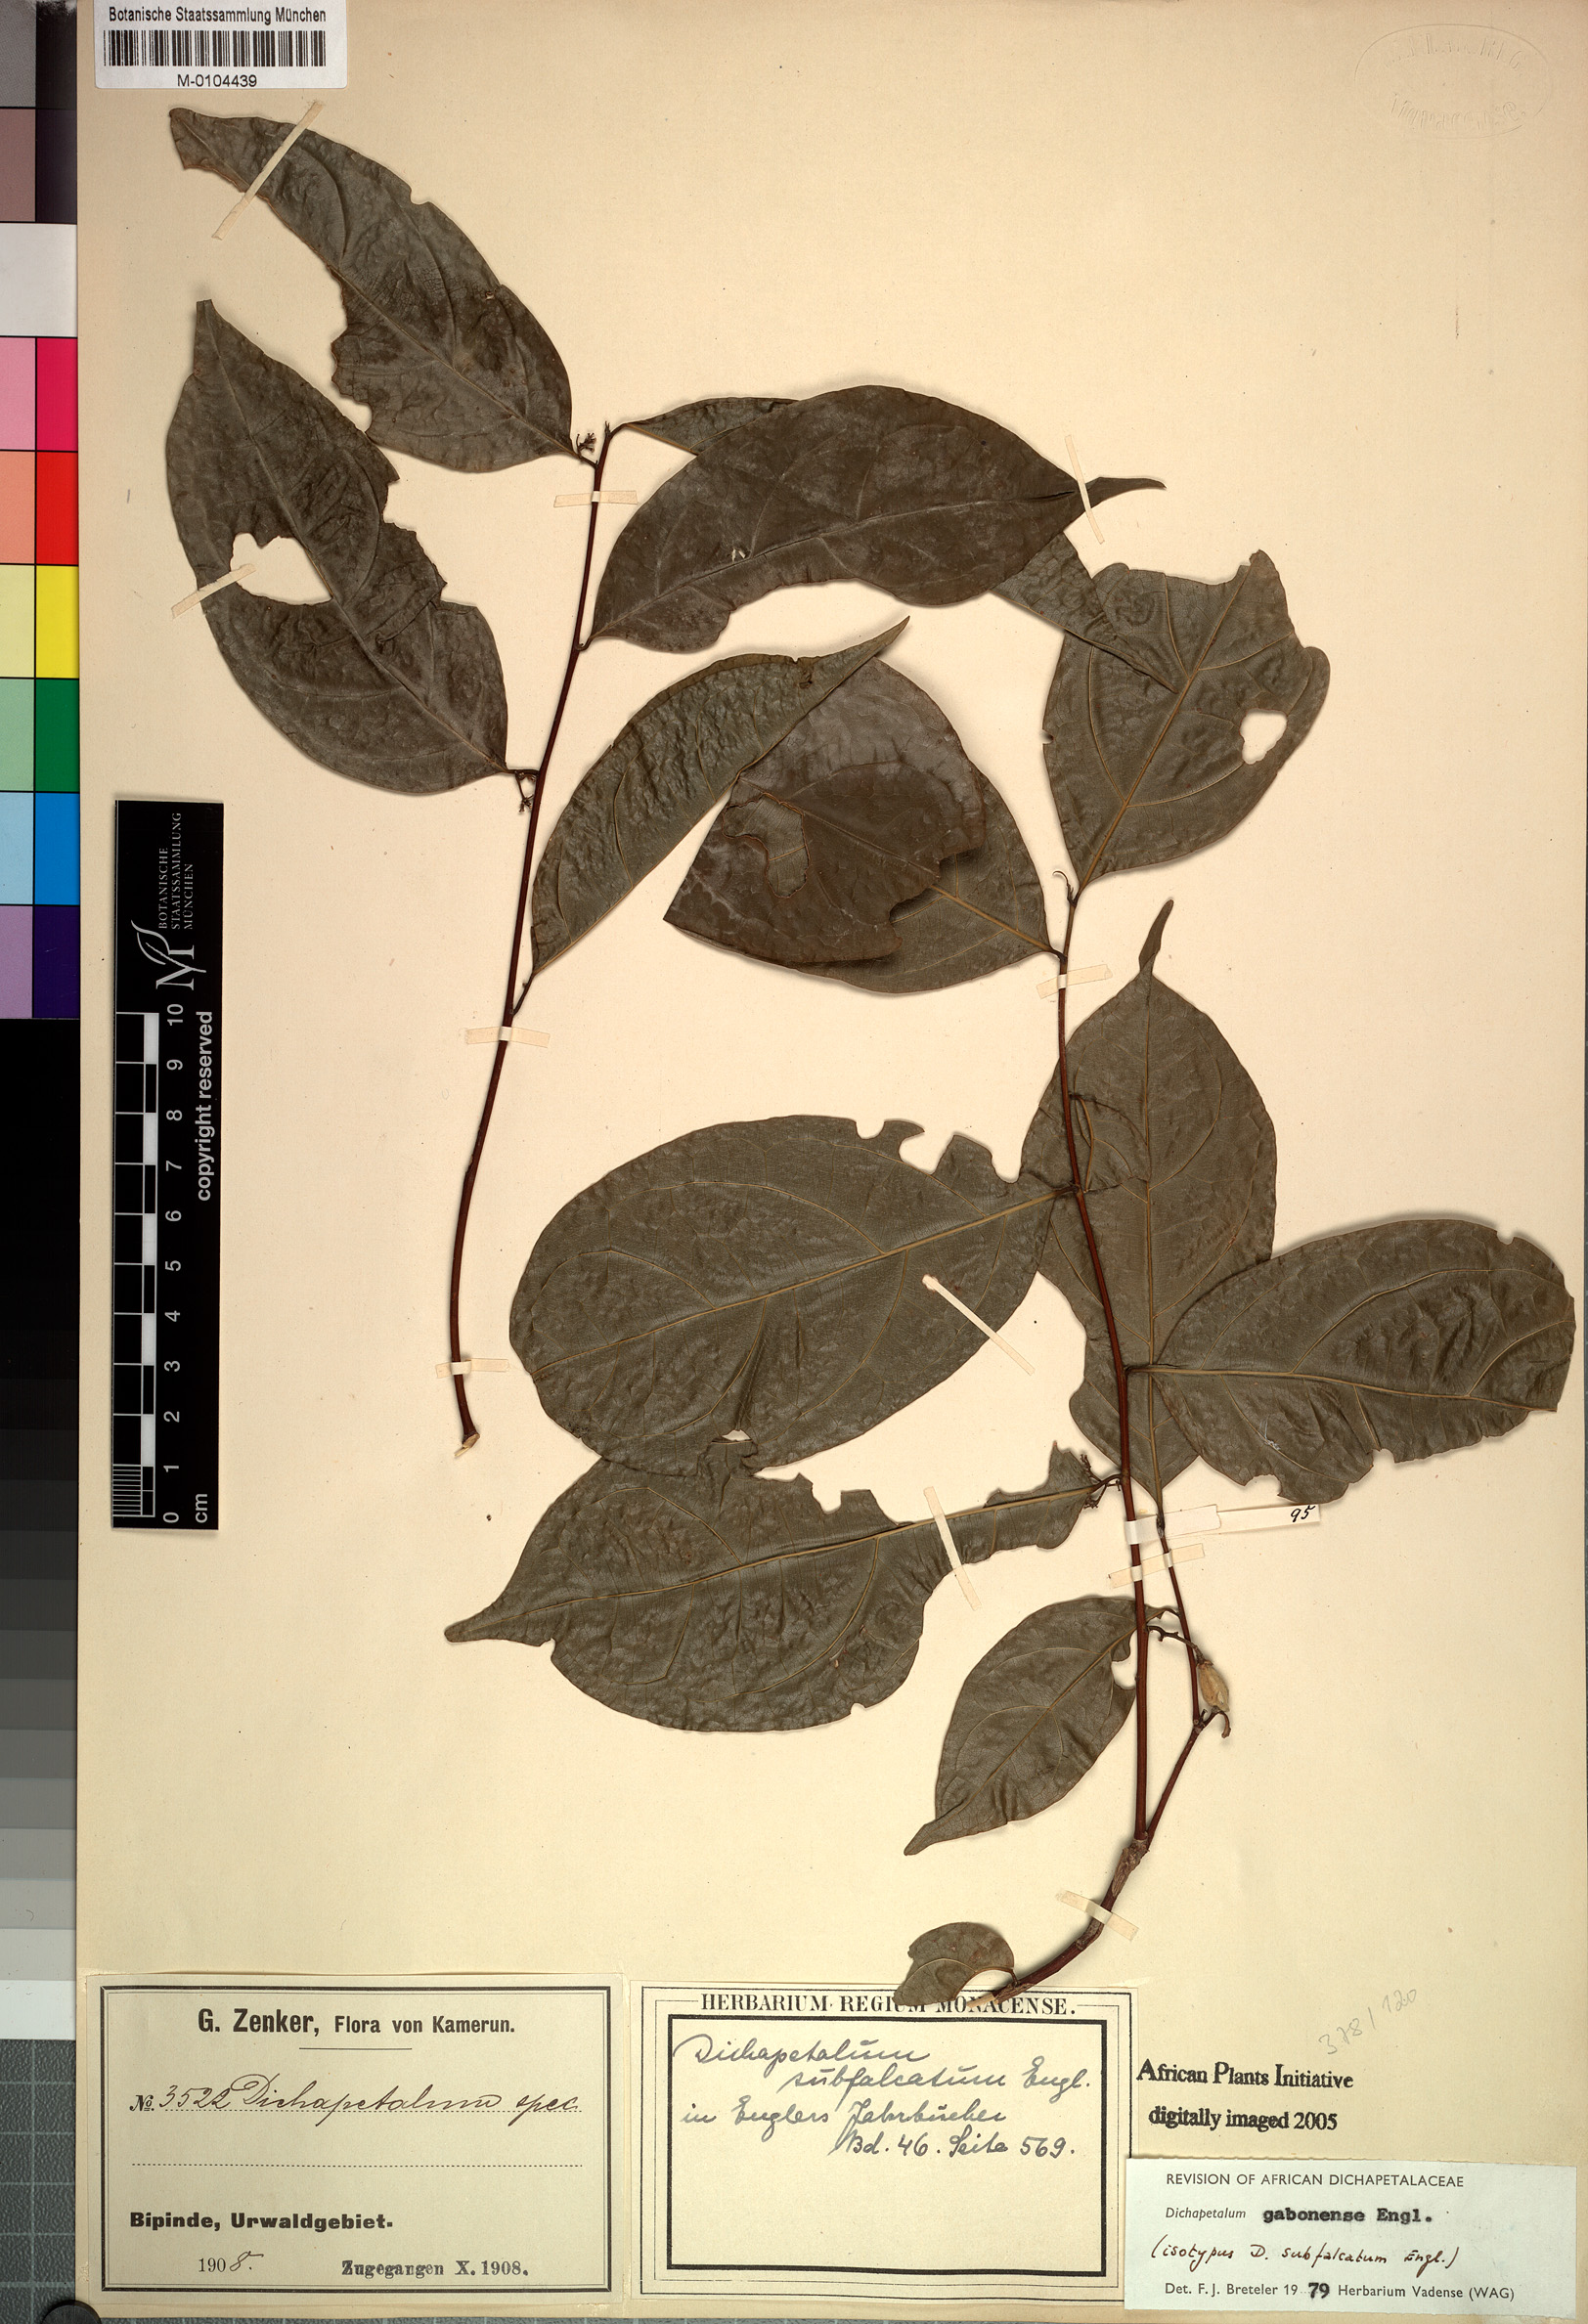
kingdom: Plantae
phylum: Tracheophyta
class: Magnoliopsida
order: Malpighiales
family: Dichapetalaceae
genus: Dichapetalum
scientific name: Dichapetalum gabonense
